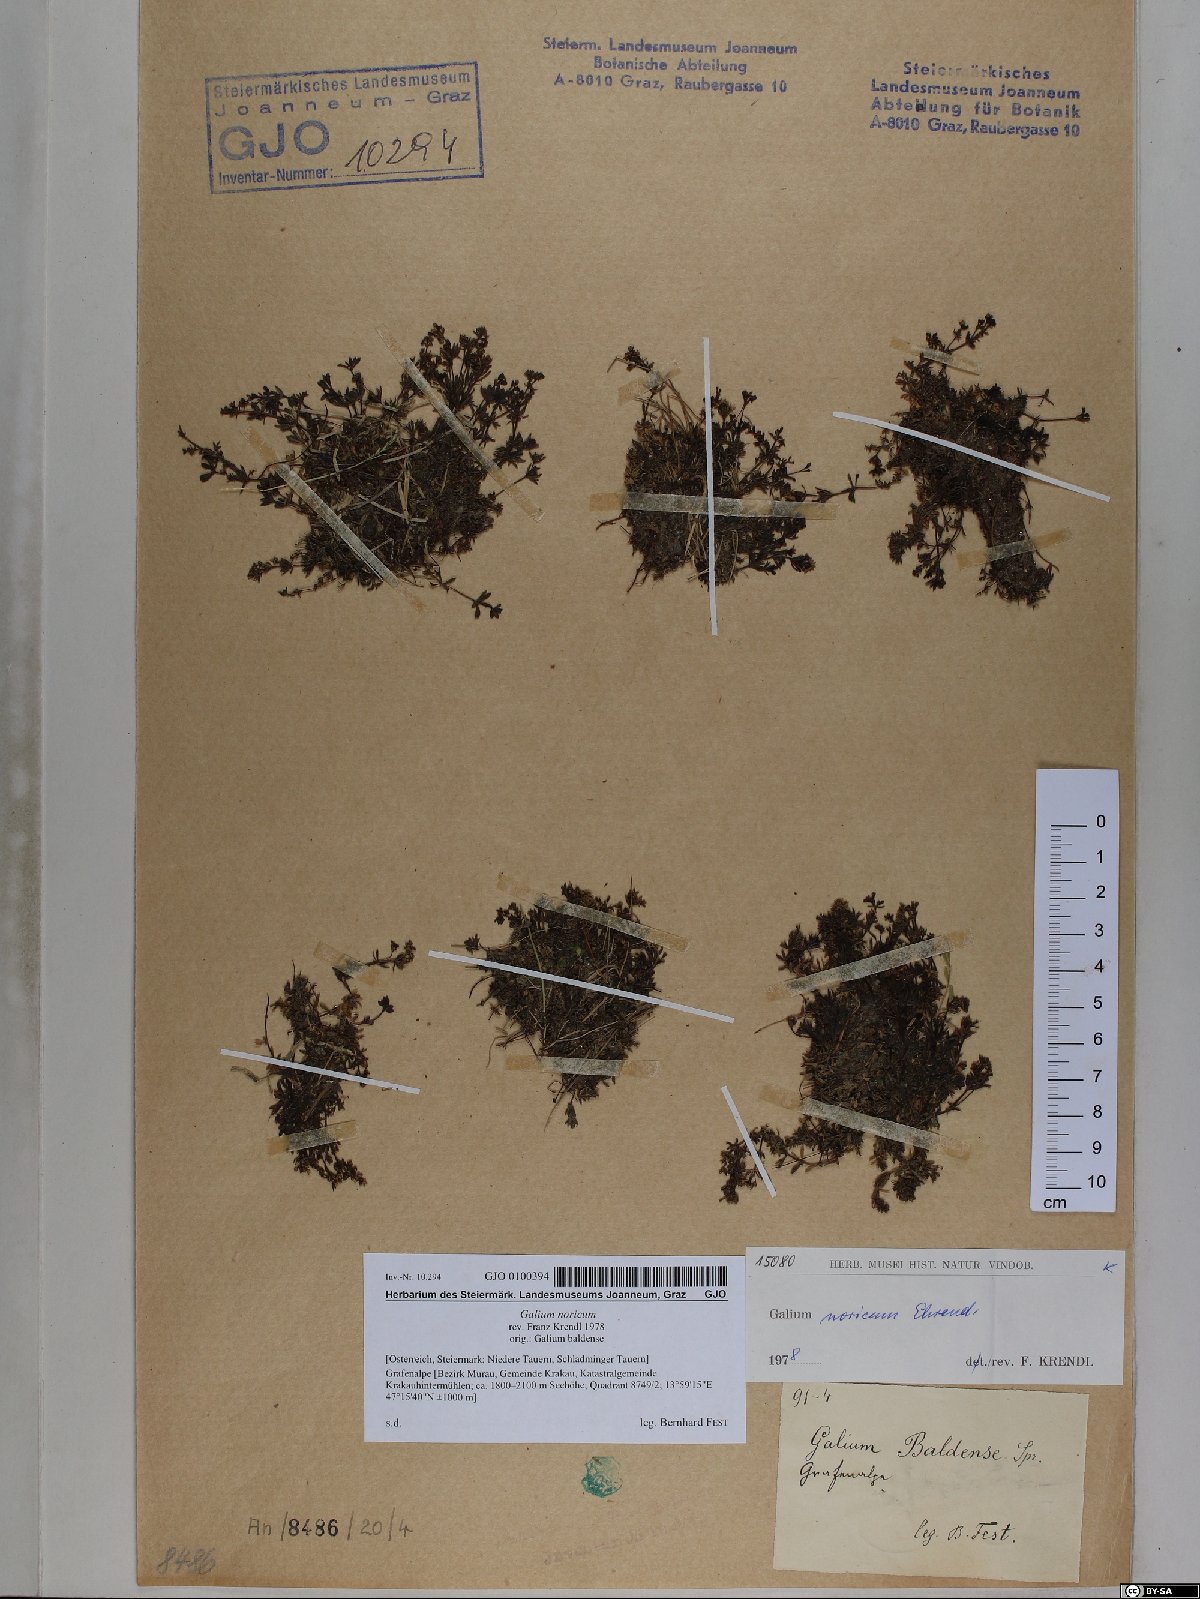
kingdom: Plantae
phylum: Tracheophyta
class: Magnoliopsida
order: Gentianales
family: Rubiaceae
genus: Galium
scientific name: Galium noricum
